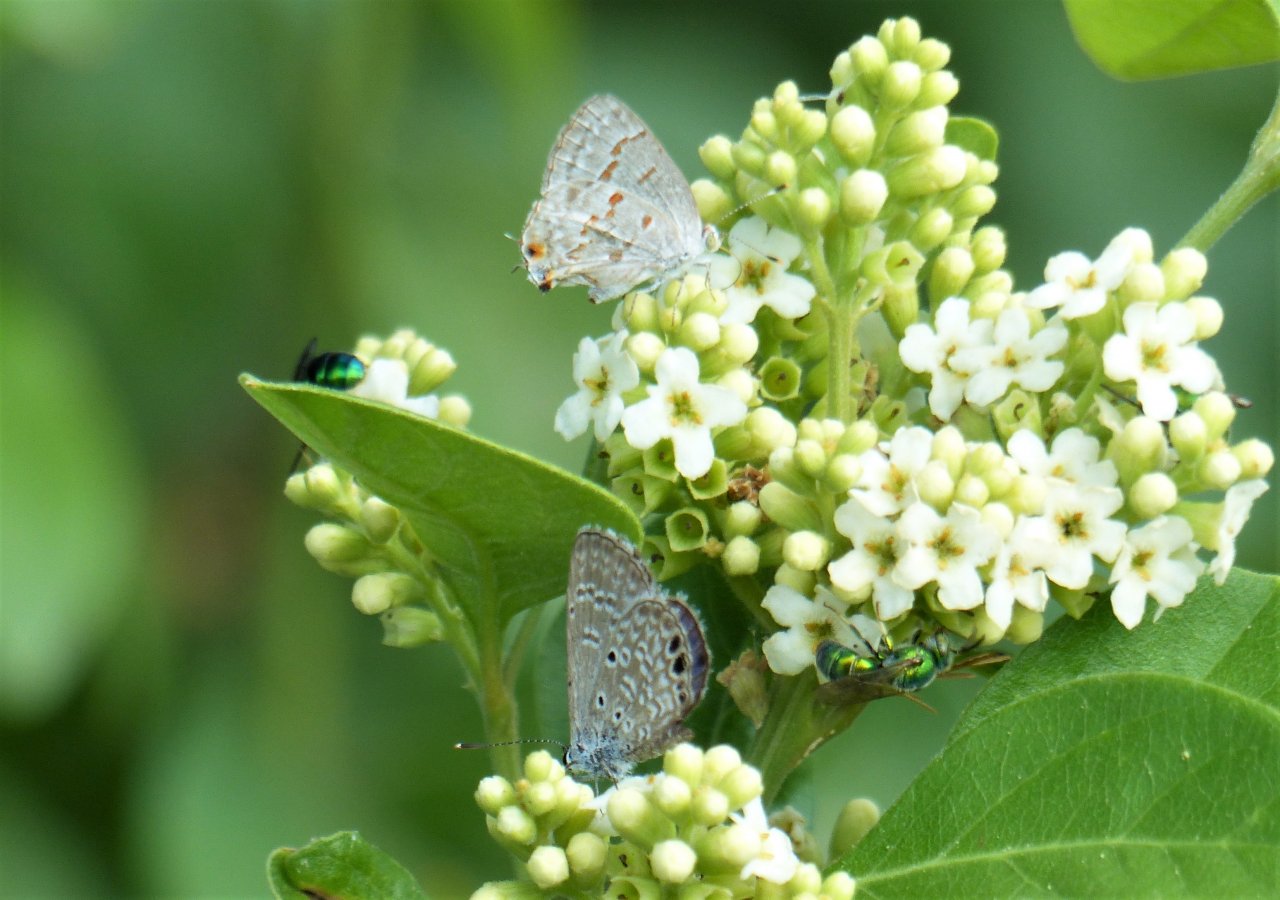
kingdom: Animalia
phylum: Arthropoda
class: Insecta
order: Lepidoptera
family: Lycaenidae
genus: Hemiargus
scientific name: Hemiargus ceraunus
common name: Ceraunus Blue
